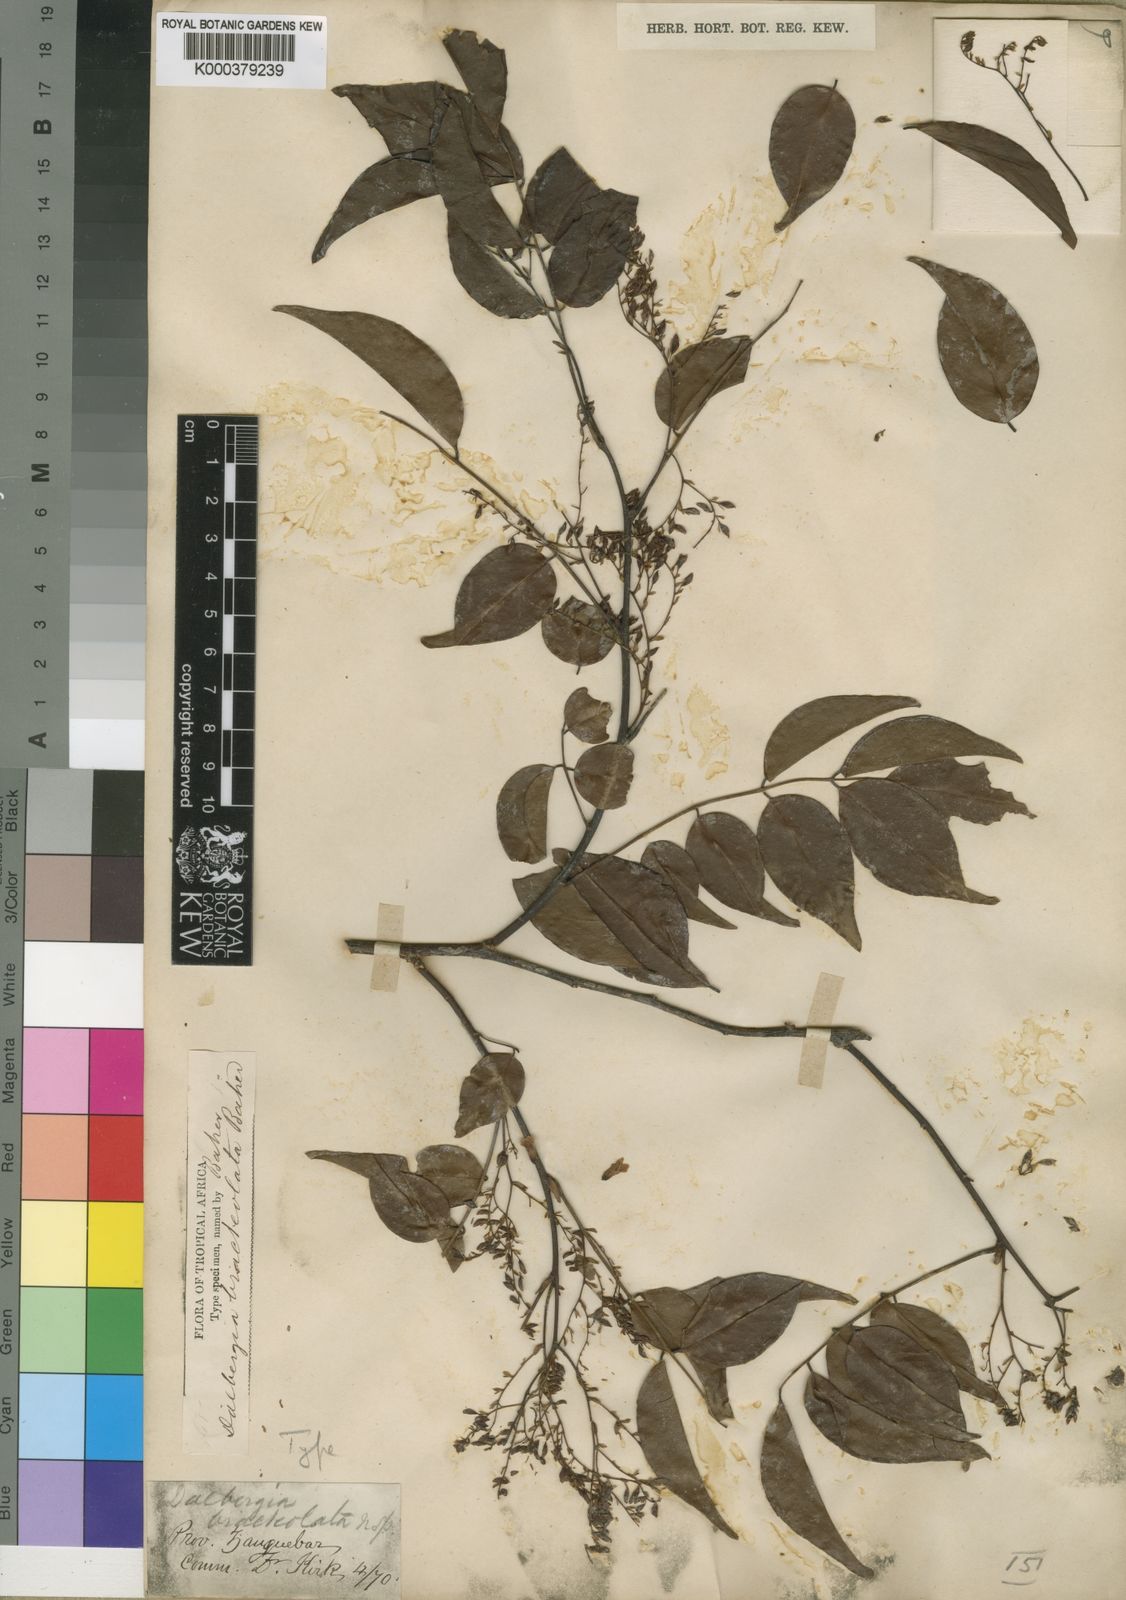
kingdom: Plantae
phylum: Tracheophyta
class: Magnoliopsida
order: Fabales
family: Fabaceae
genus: Dalbergia
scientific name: Dalbergia bracteolata
